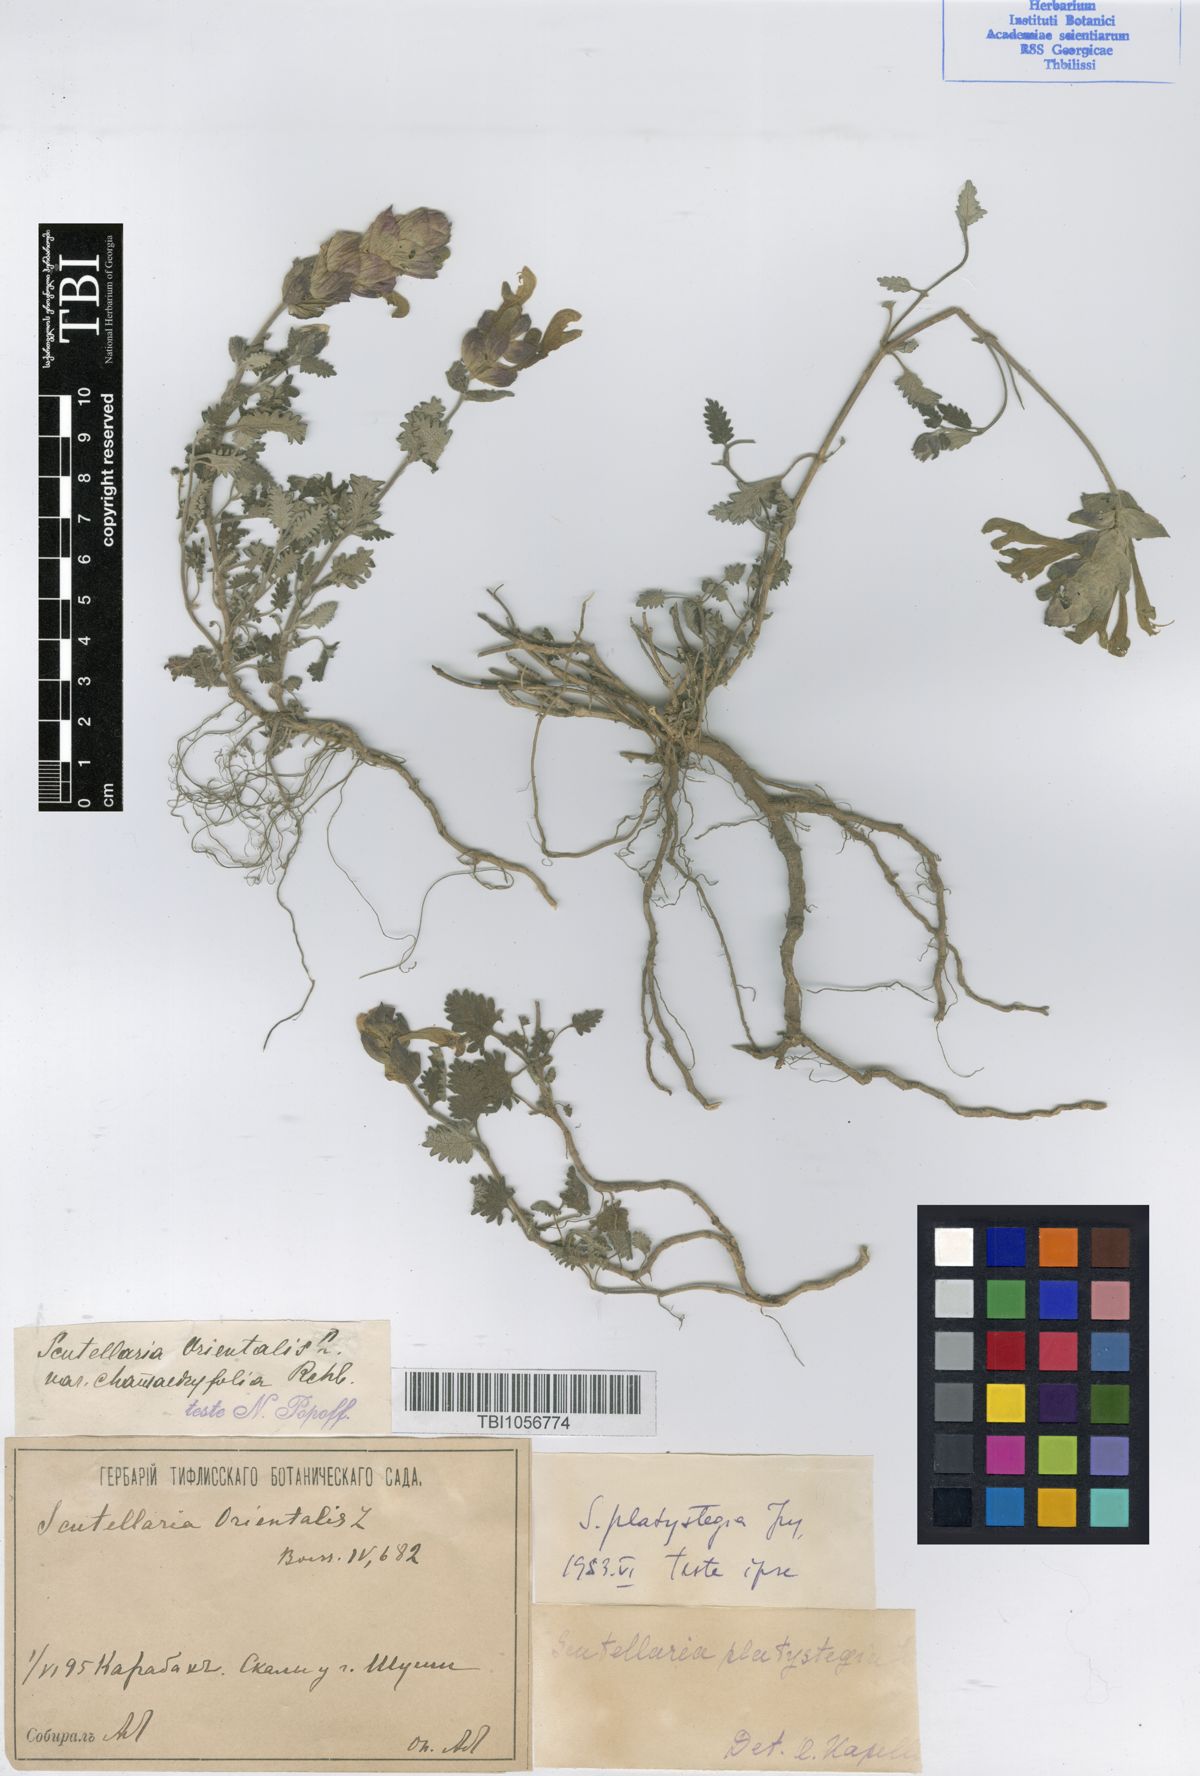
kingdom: Plantae
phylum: Tracheophyta
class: Magnoliopsida
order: Lamiales
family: Lamiaceae
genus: Scutellaria
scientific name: Scutellaria platystegia
